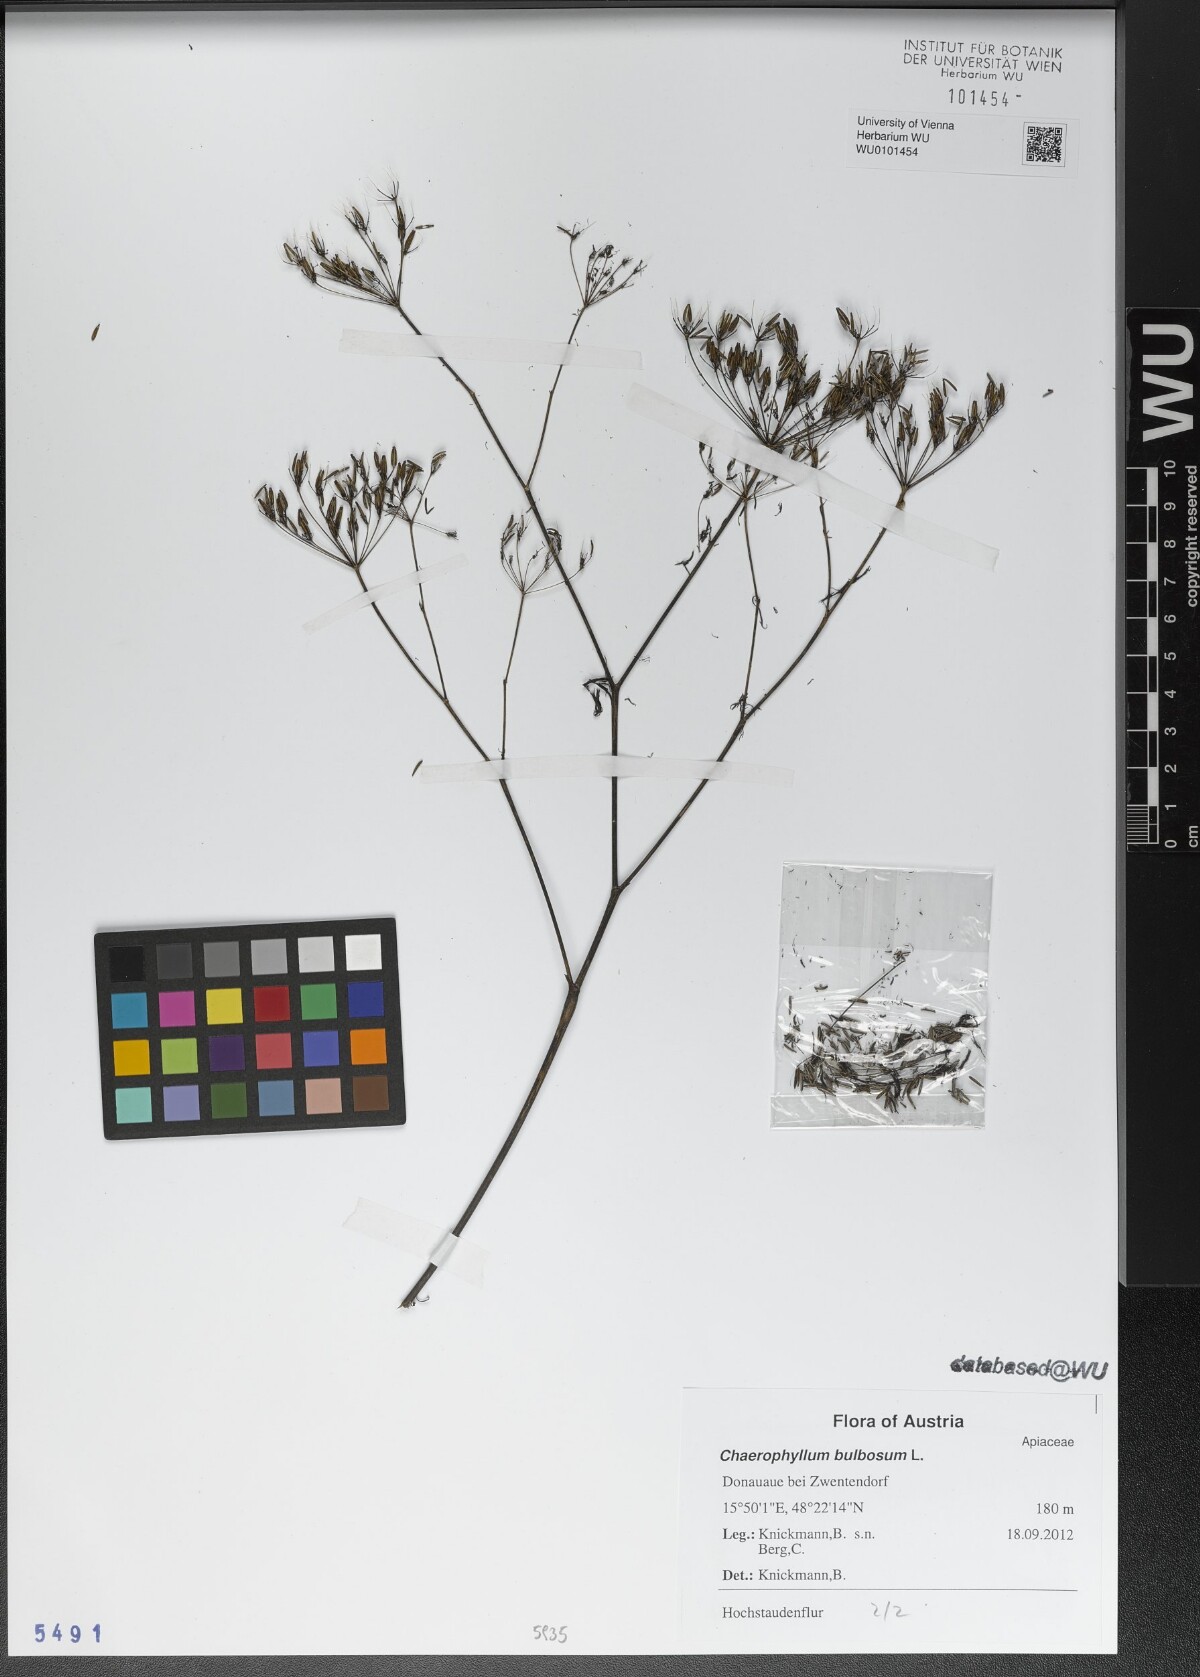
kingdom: Plantae
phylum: Tracheophyta
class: Magnoliopsida
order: Apiales
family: Apiaceae
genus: Chaerophyllum
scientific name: Chaerophyllum bulbosum
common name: Bulbous chervil
